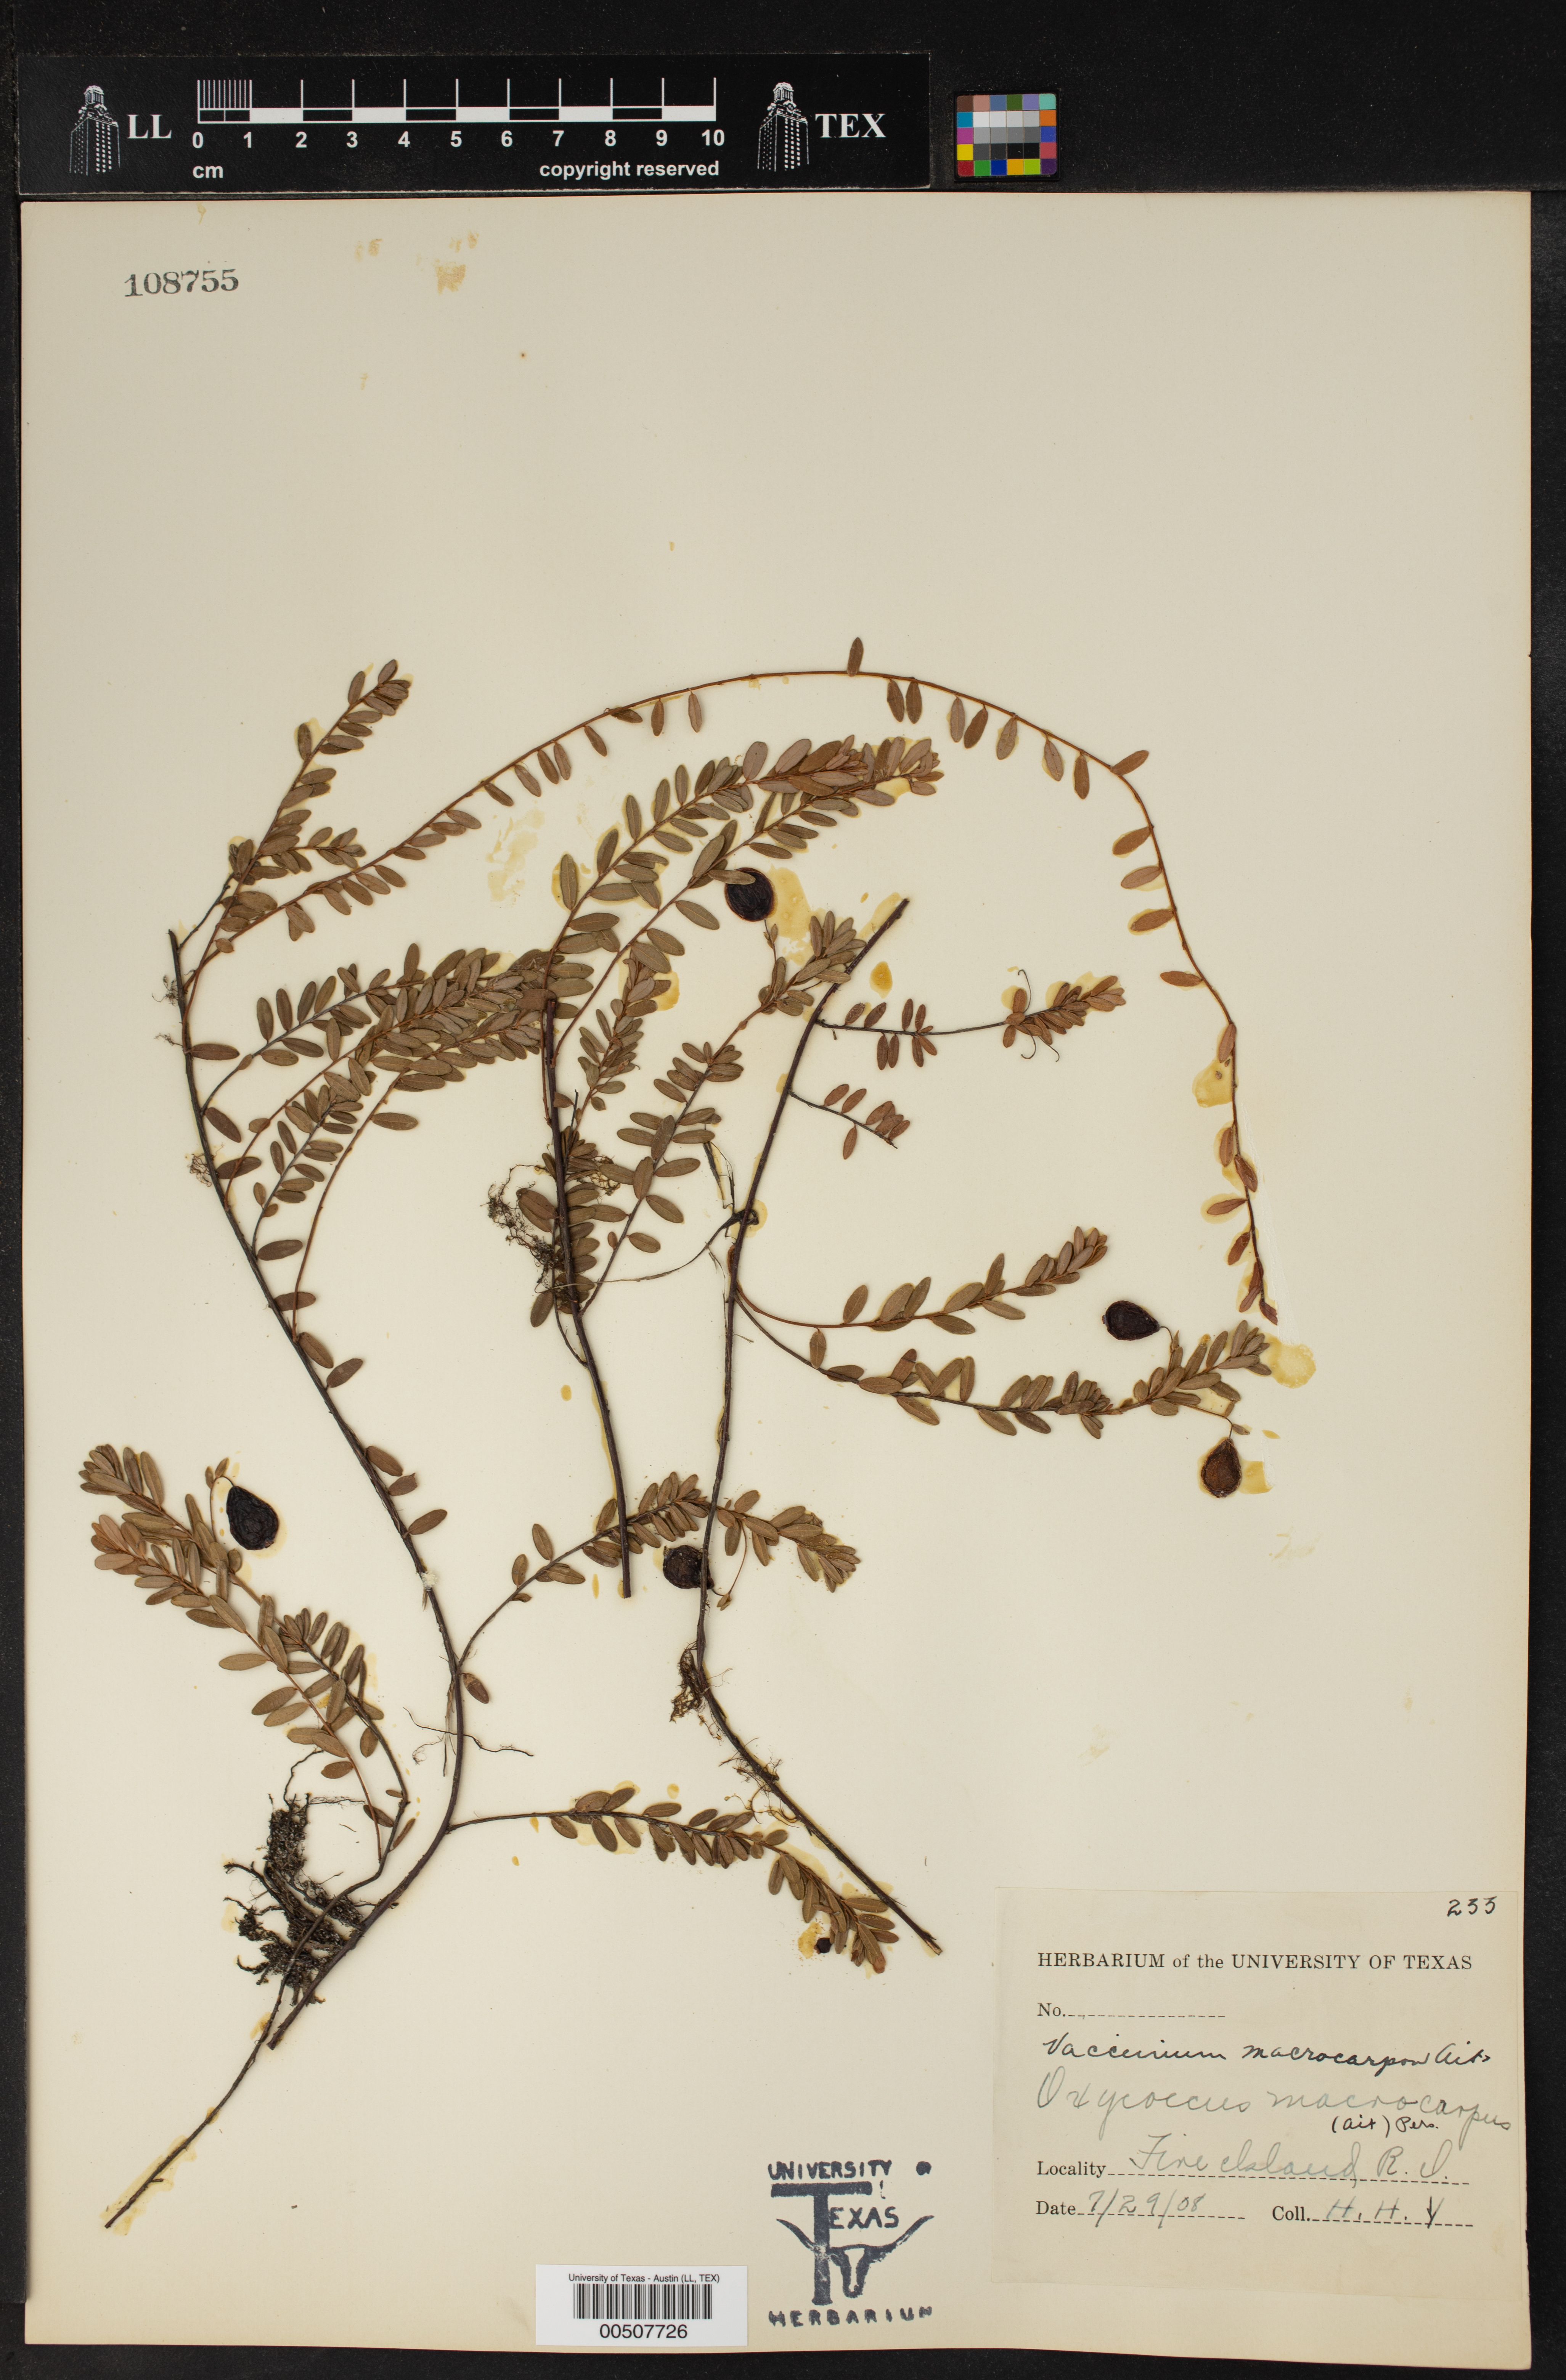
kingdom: Plantae
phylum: Tracheophyta
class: Magnoliopsida
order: Ericales
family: Ericaceae
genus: Vaccinium
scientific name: Vaccinium macrocarpon
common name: American cranberry
